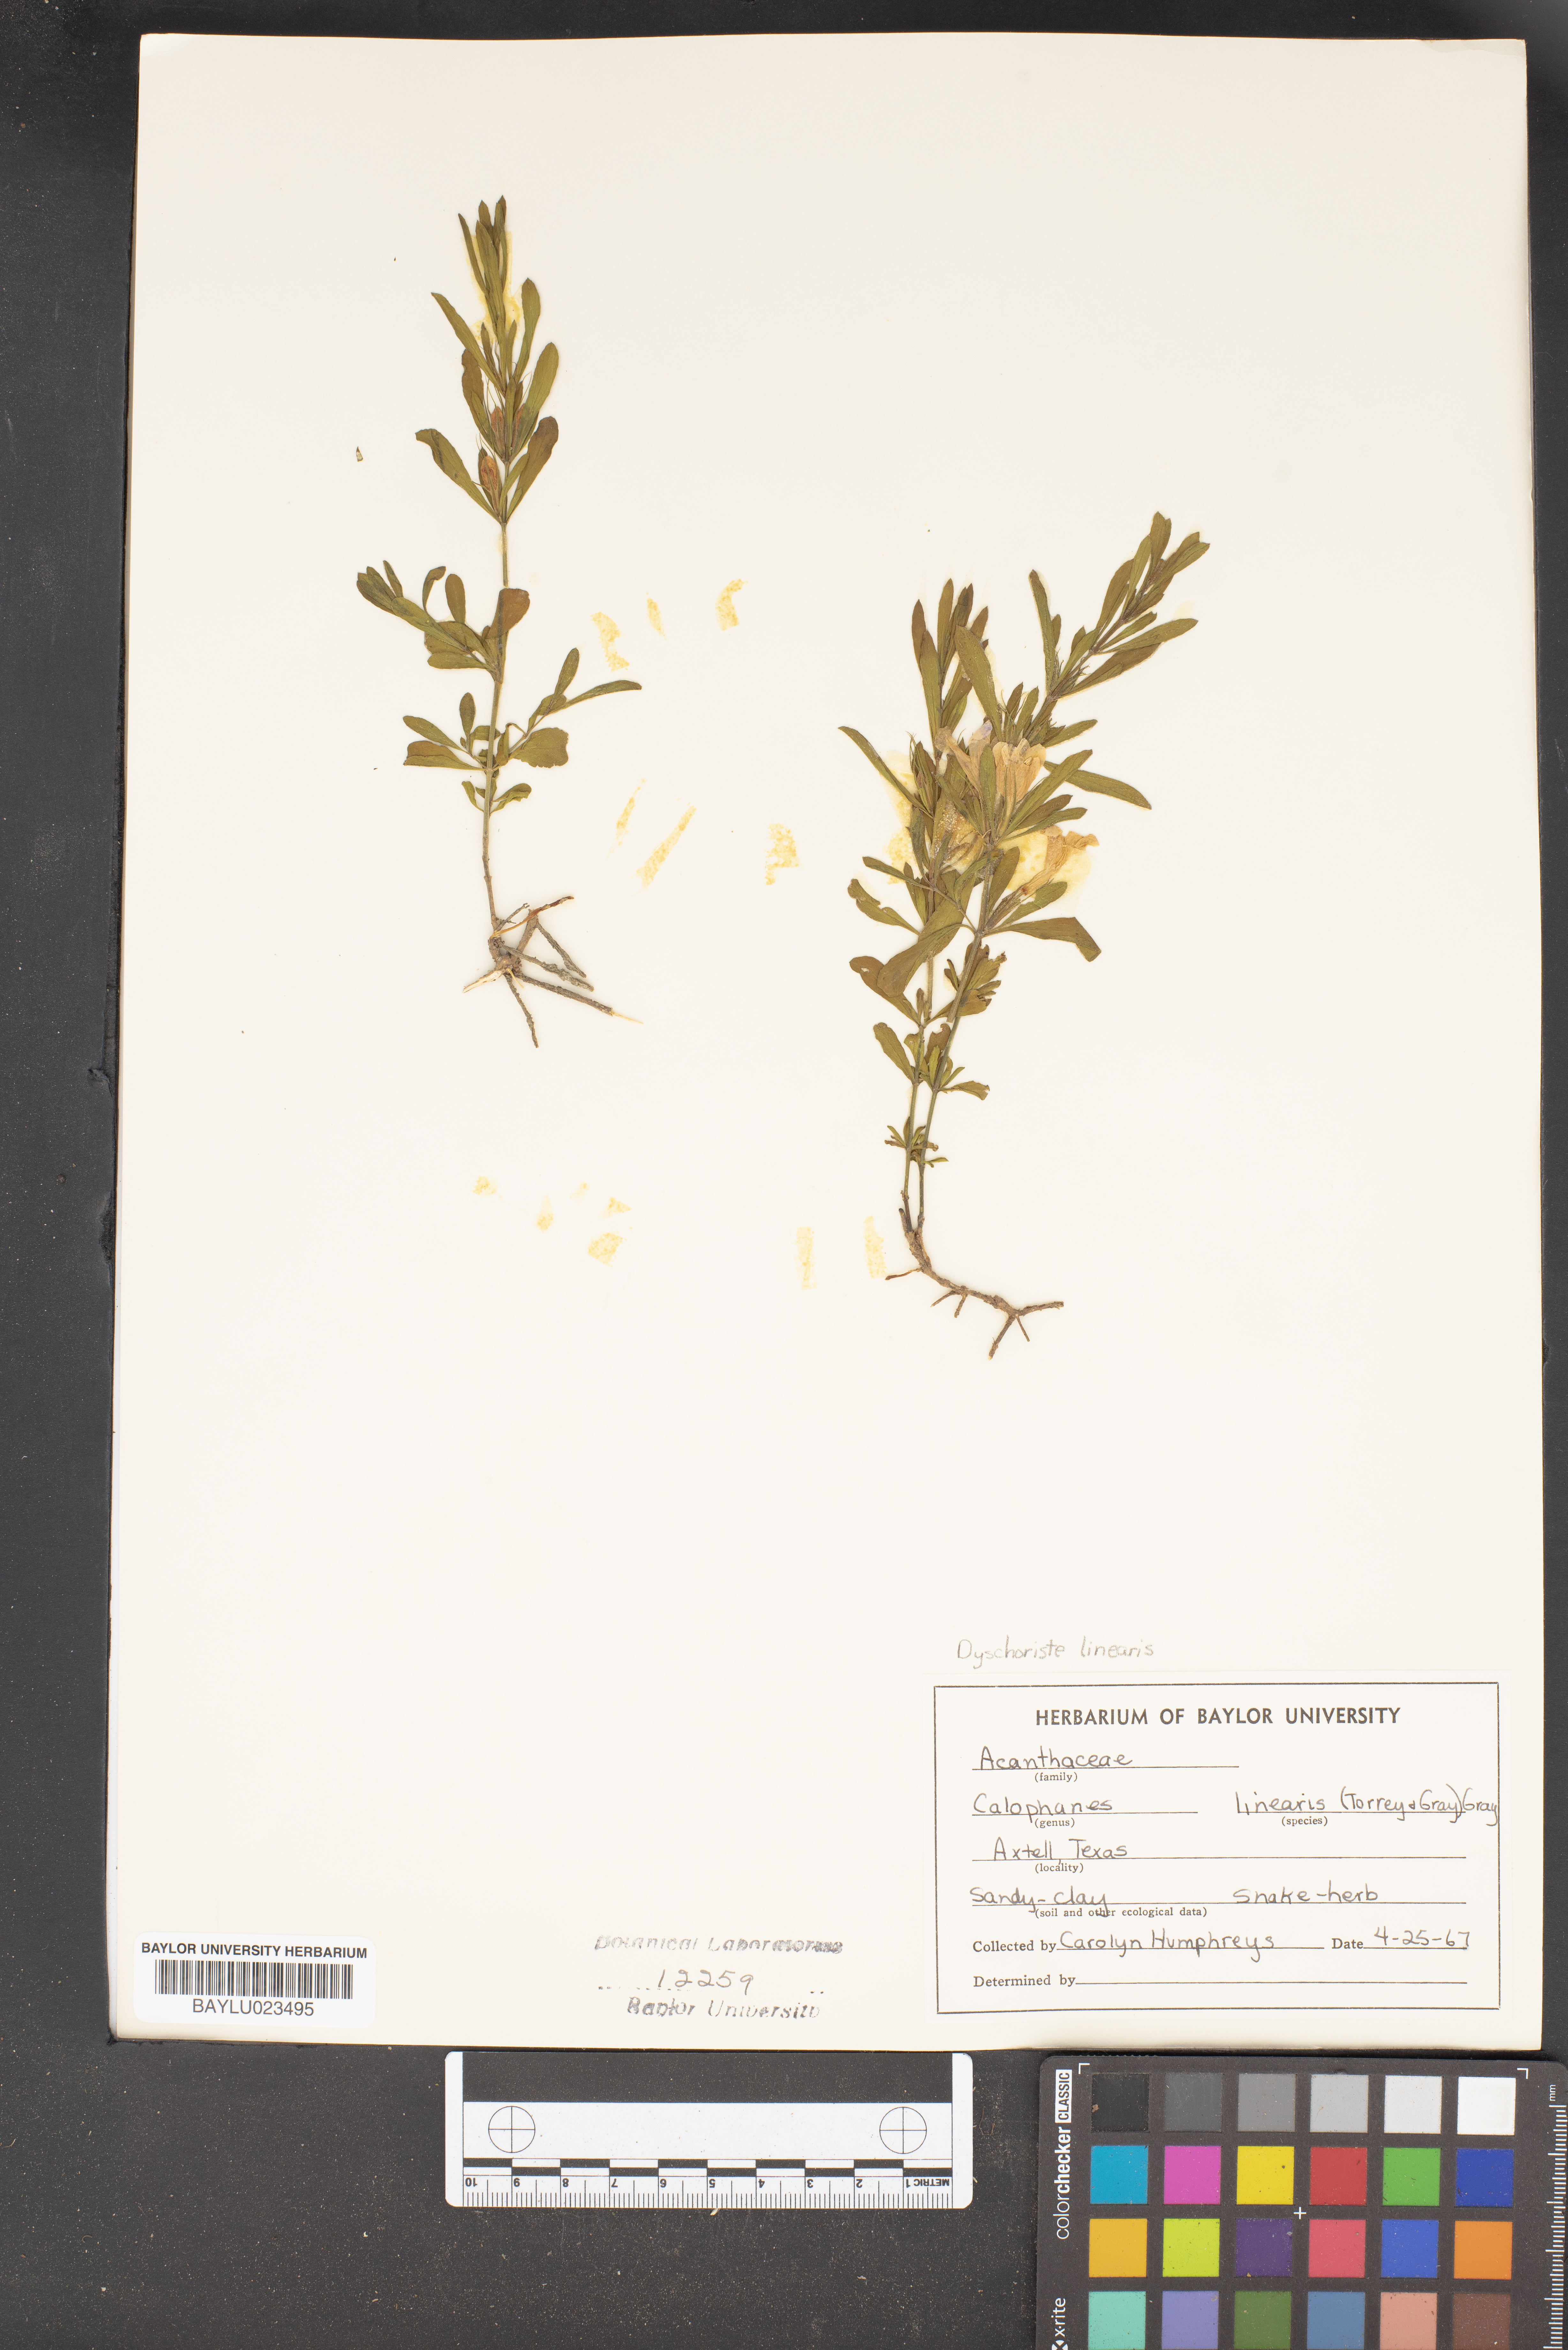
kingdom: Plantae
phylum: Tracheophyta
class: Magnoliopsida
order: Lamiales
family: Acanthaceae
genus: Dyschoriste
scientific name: Dyschoriste linearis
